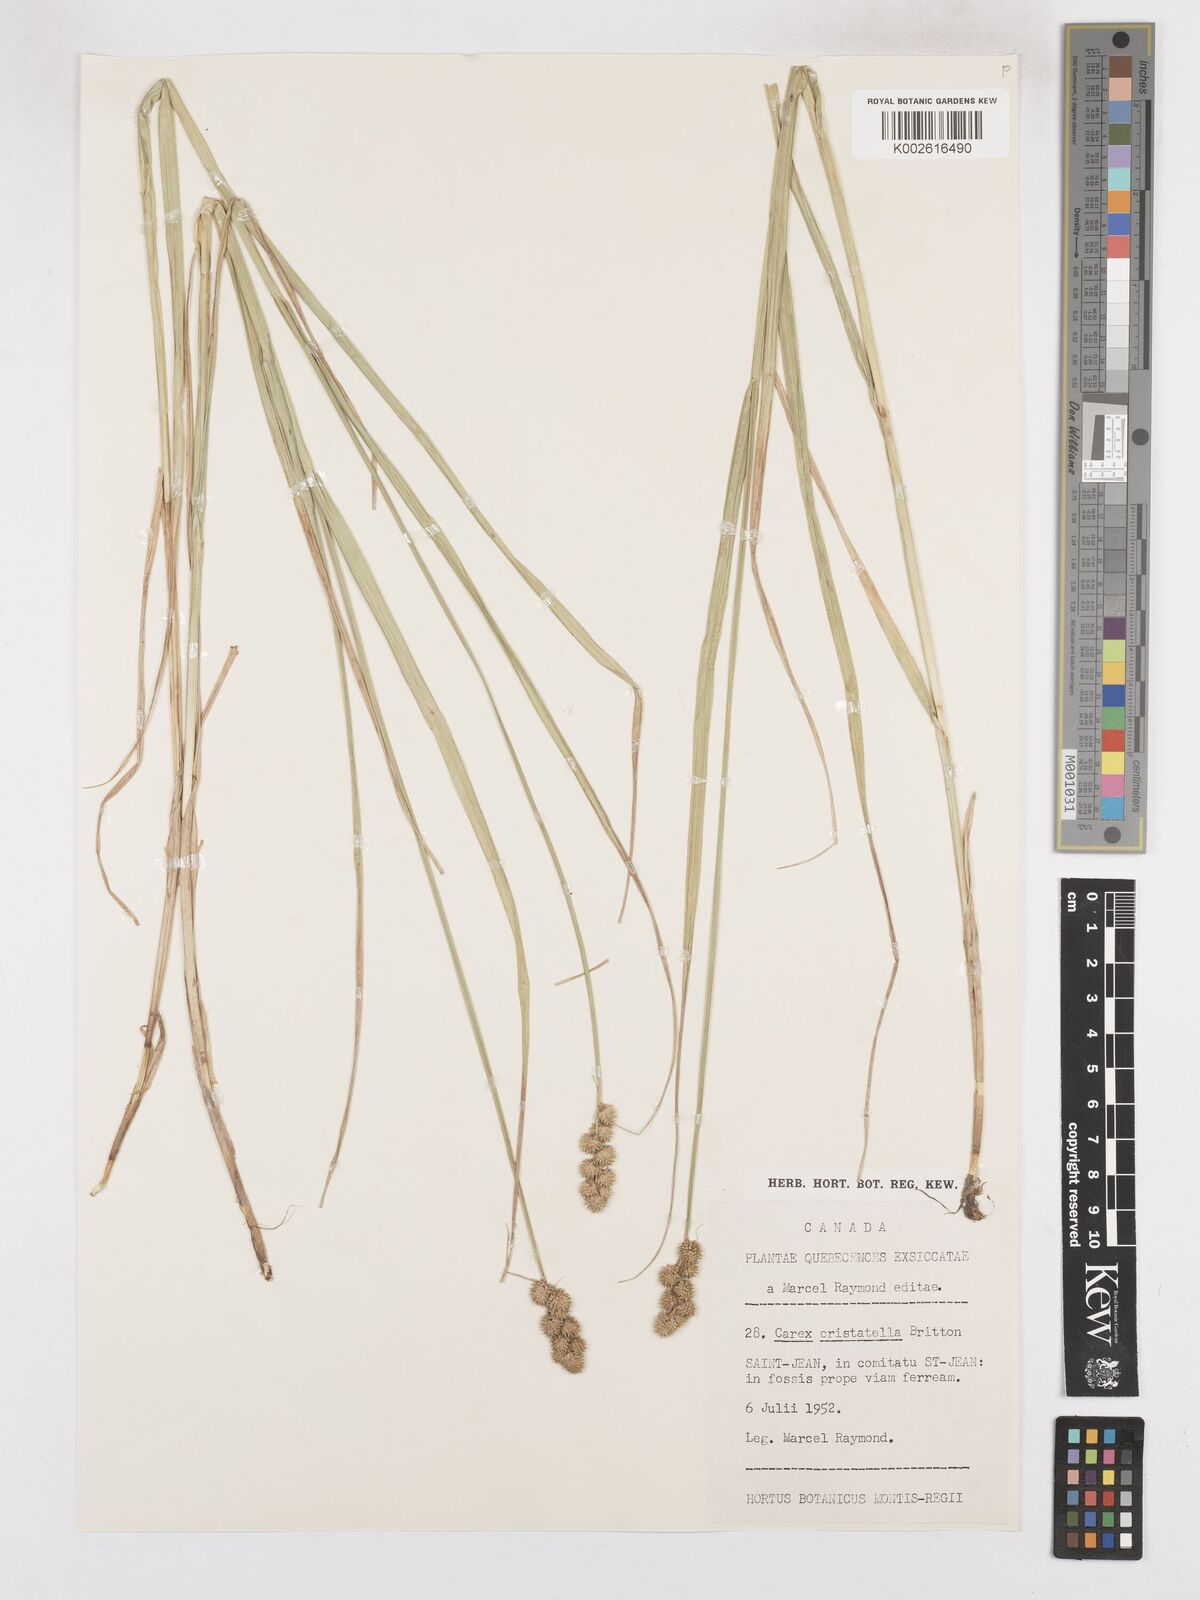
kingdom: Plantae
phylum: Tracheophyta
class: Liliopsida
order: Poales
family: Cyperaceae
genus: Carex
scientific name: Carex cristatella
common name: Crested oval sedge
